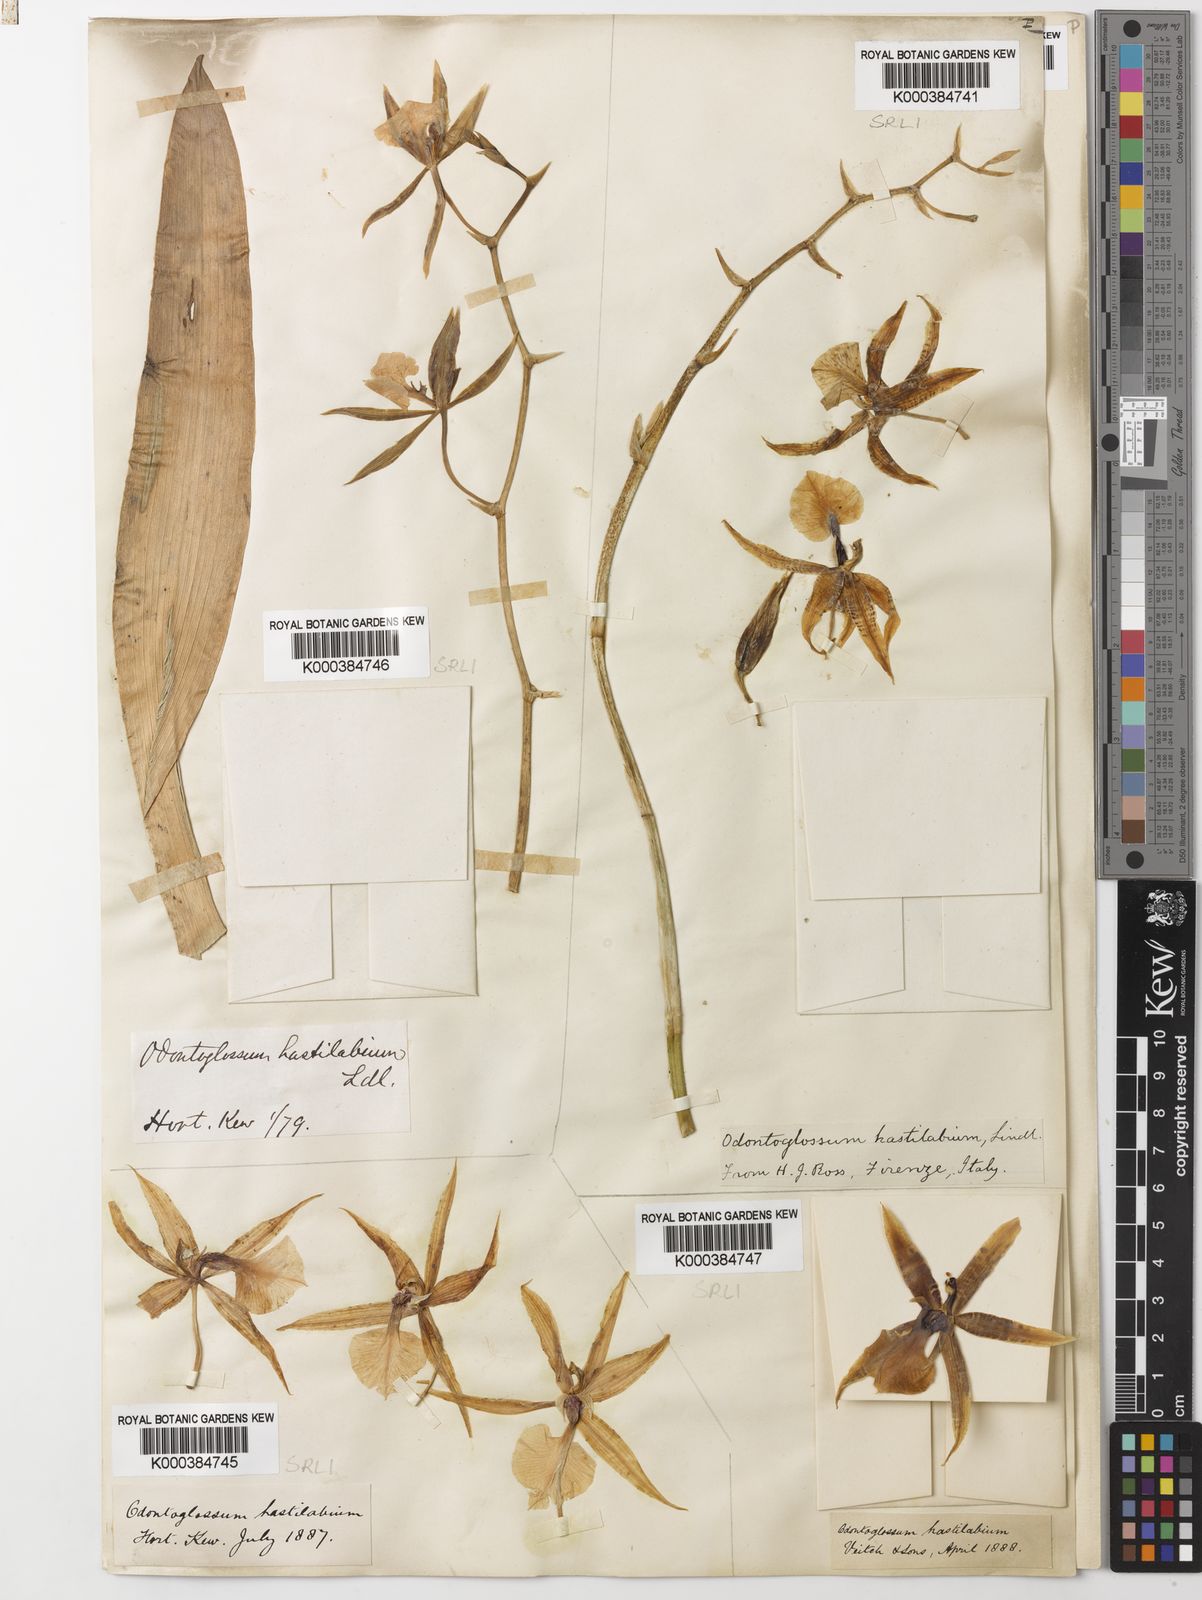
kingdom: Plantae
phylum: Tracheophyta
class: Liliopsida
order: Asparagales
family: Orchidaceae
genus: Oncidium
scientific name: Oncidium hastilabium
